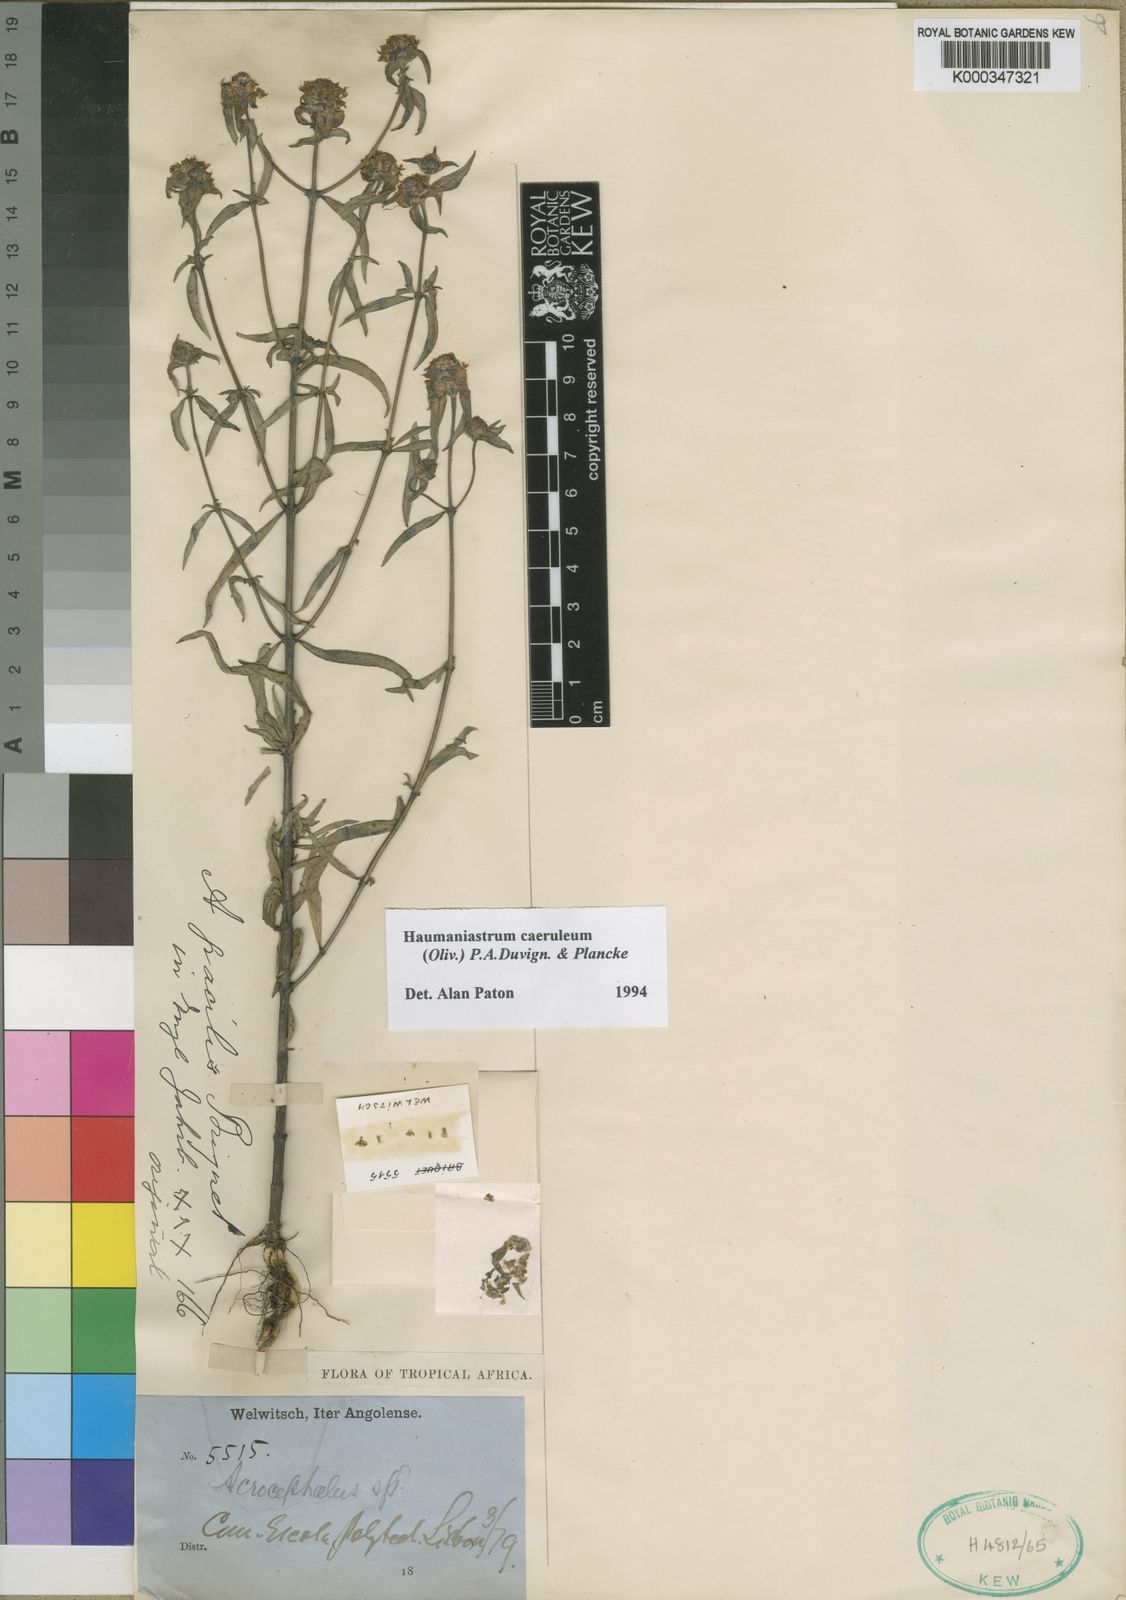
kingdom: Plantae
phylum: Tracheophyta
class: Magnoliopsida
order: Lamiales
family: Lamiaceae
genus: Haumaniastrum
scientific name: Haumaniastrum caeruleum
